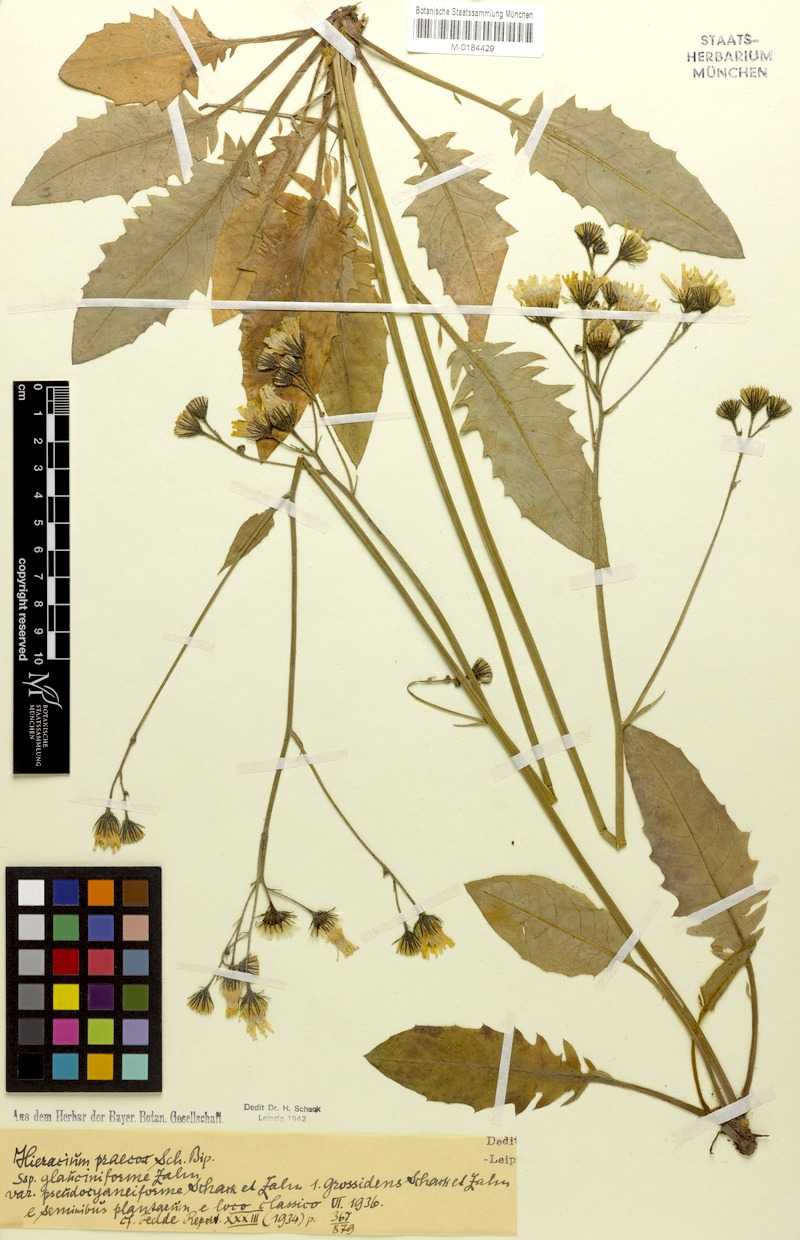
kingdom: Plantae
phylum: Tracheophyta
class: Magnoliopsida
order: Asterales
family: Asteraceae
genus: Hieracium
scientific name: Hieracium glaucinum
